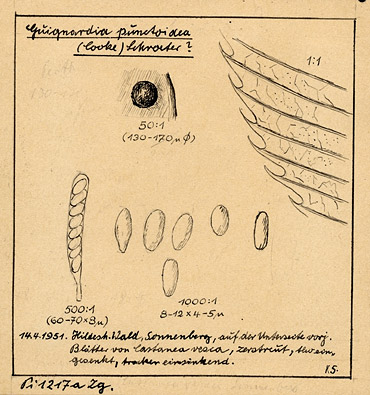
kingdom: Fungi
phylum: Ascomycota
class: Dothideomycetes
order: Botryosphaeriales
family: Phyllostictaceae
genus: Guignardia
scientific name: Guignardia punctoidea
